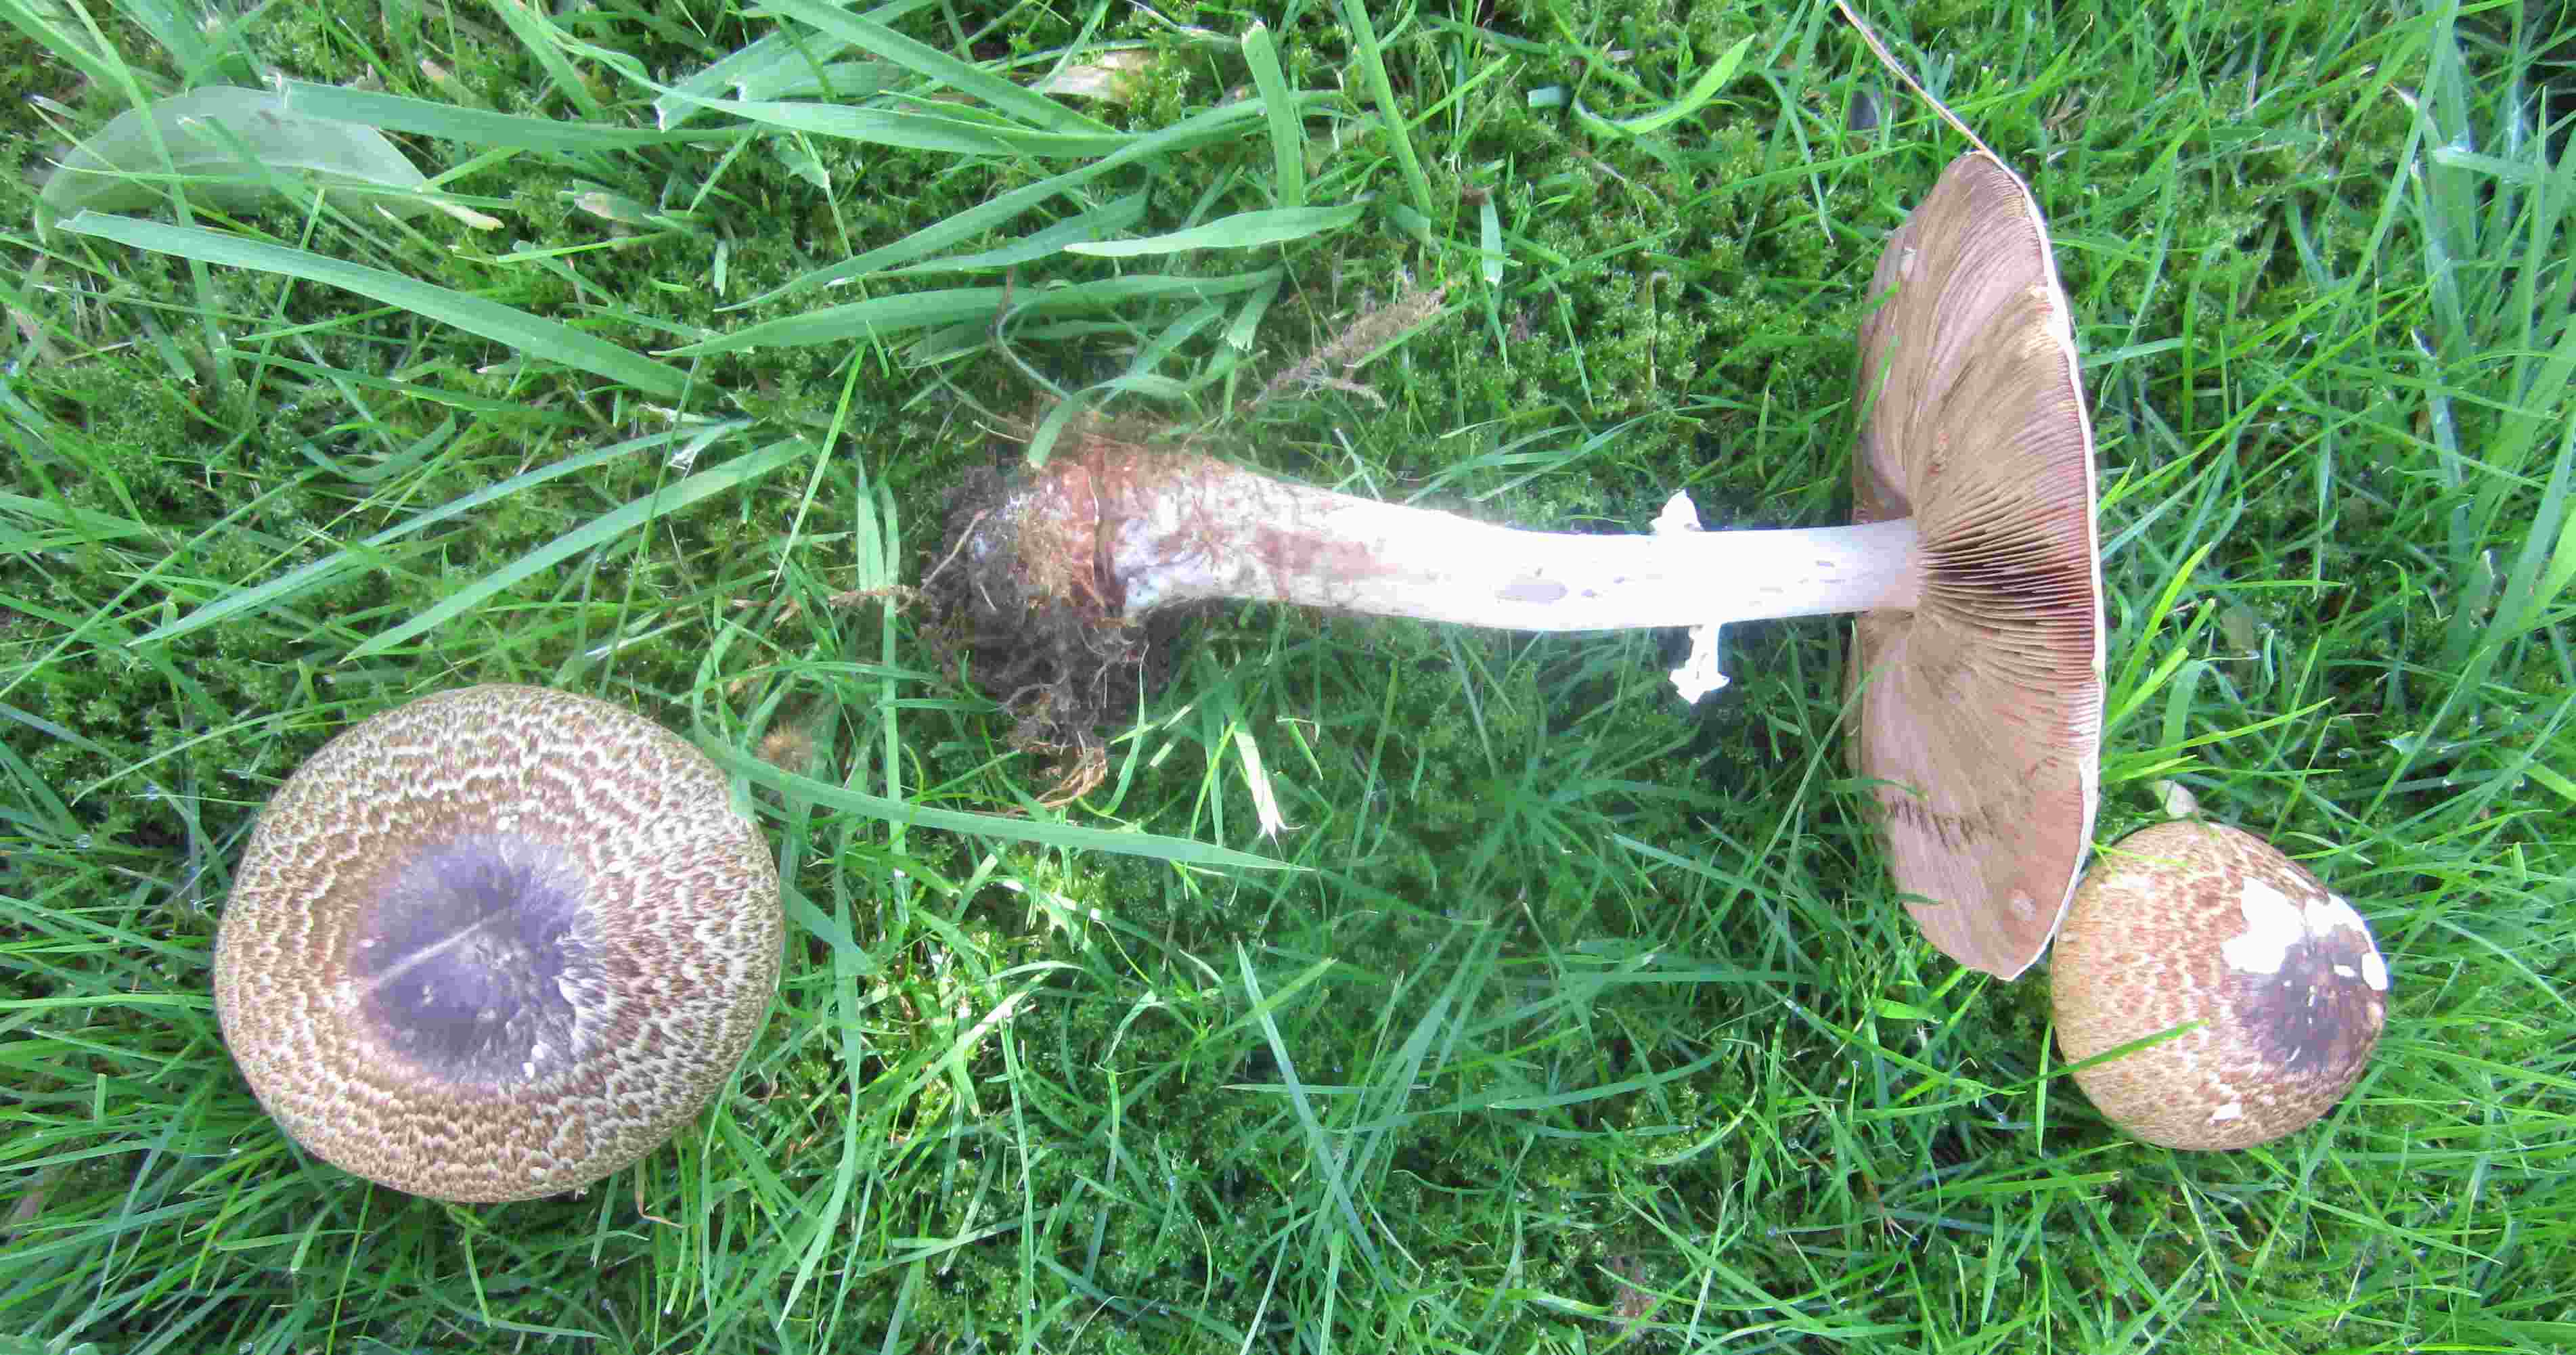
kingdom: Fungi
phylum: Basidiomycota
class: Agaricomycetes
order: Agaricales
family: Agaricaceae
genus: Agaricus
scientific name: Agaricus impudicus
